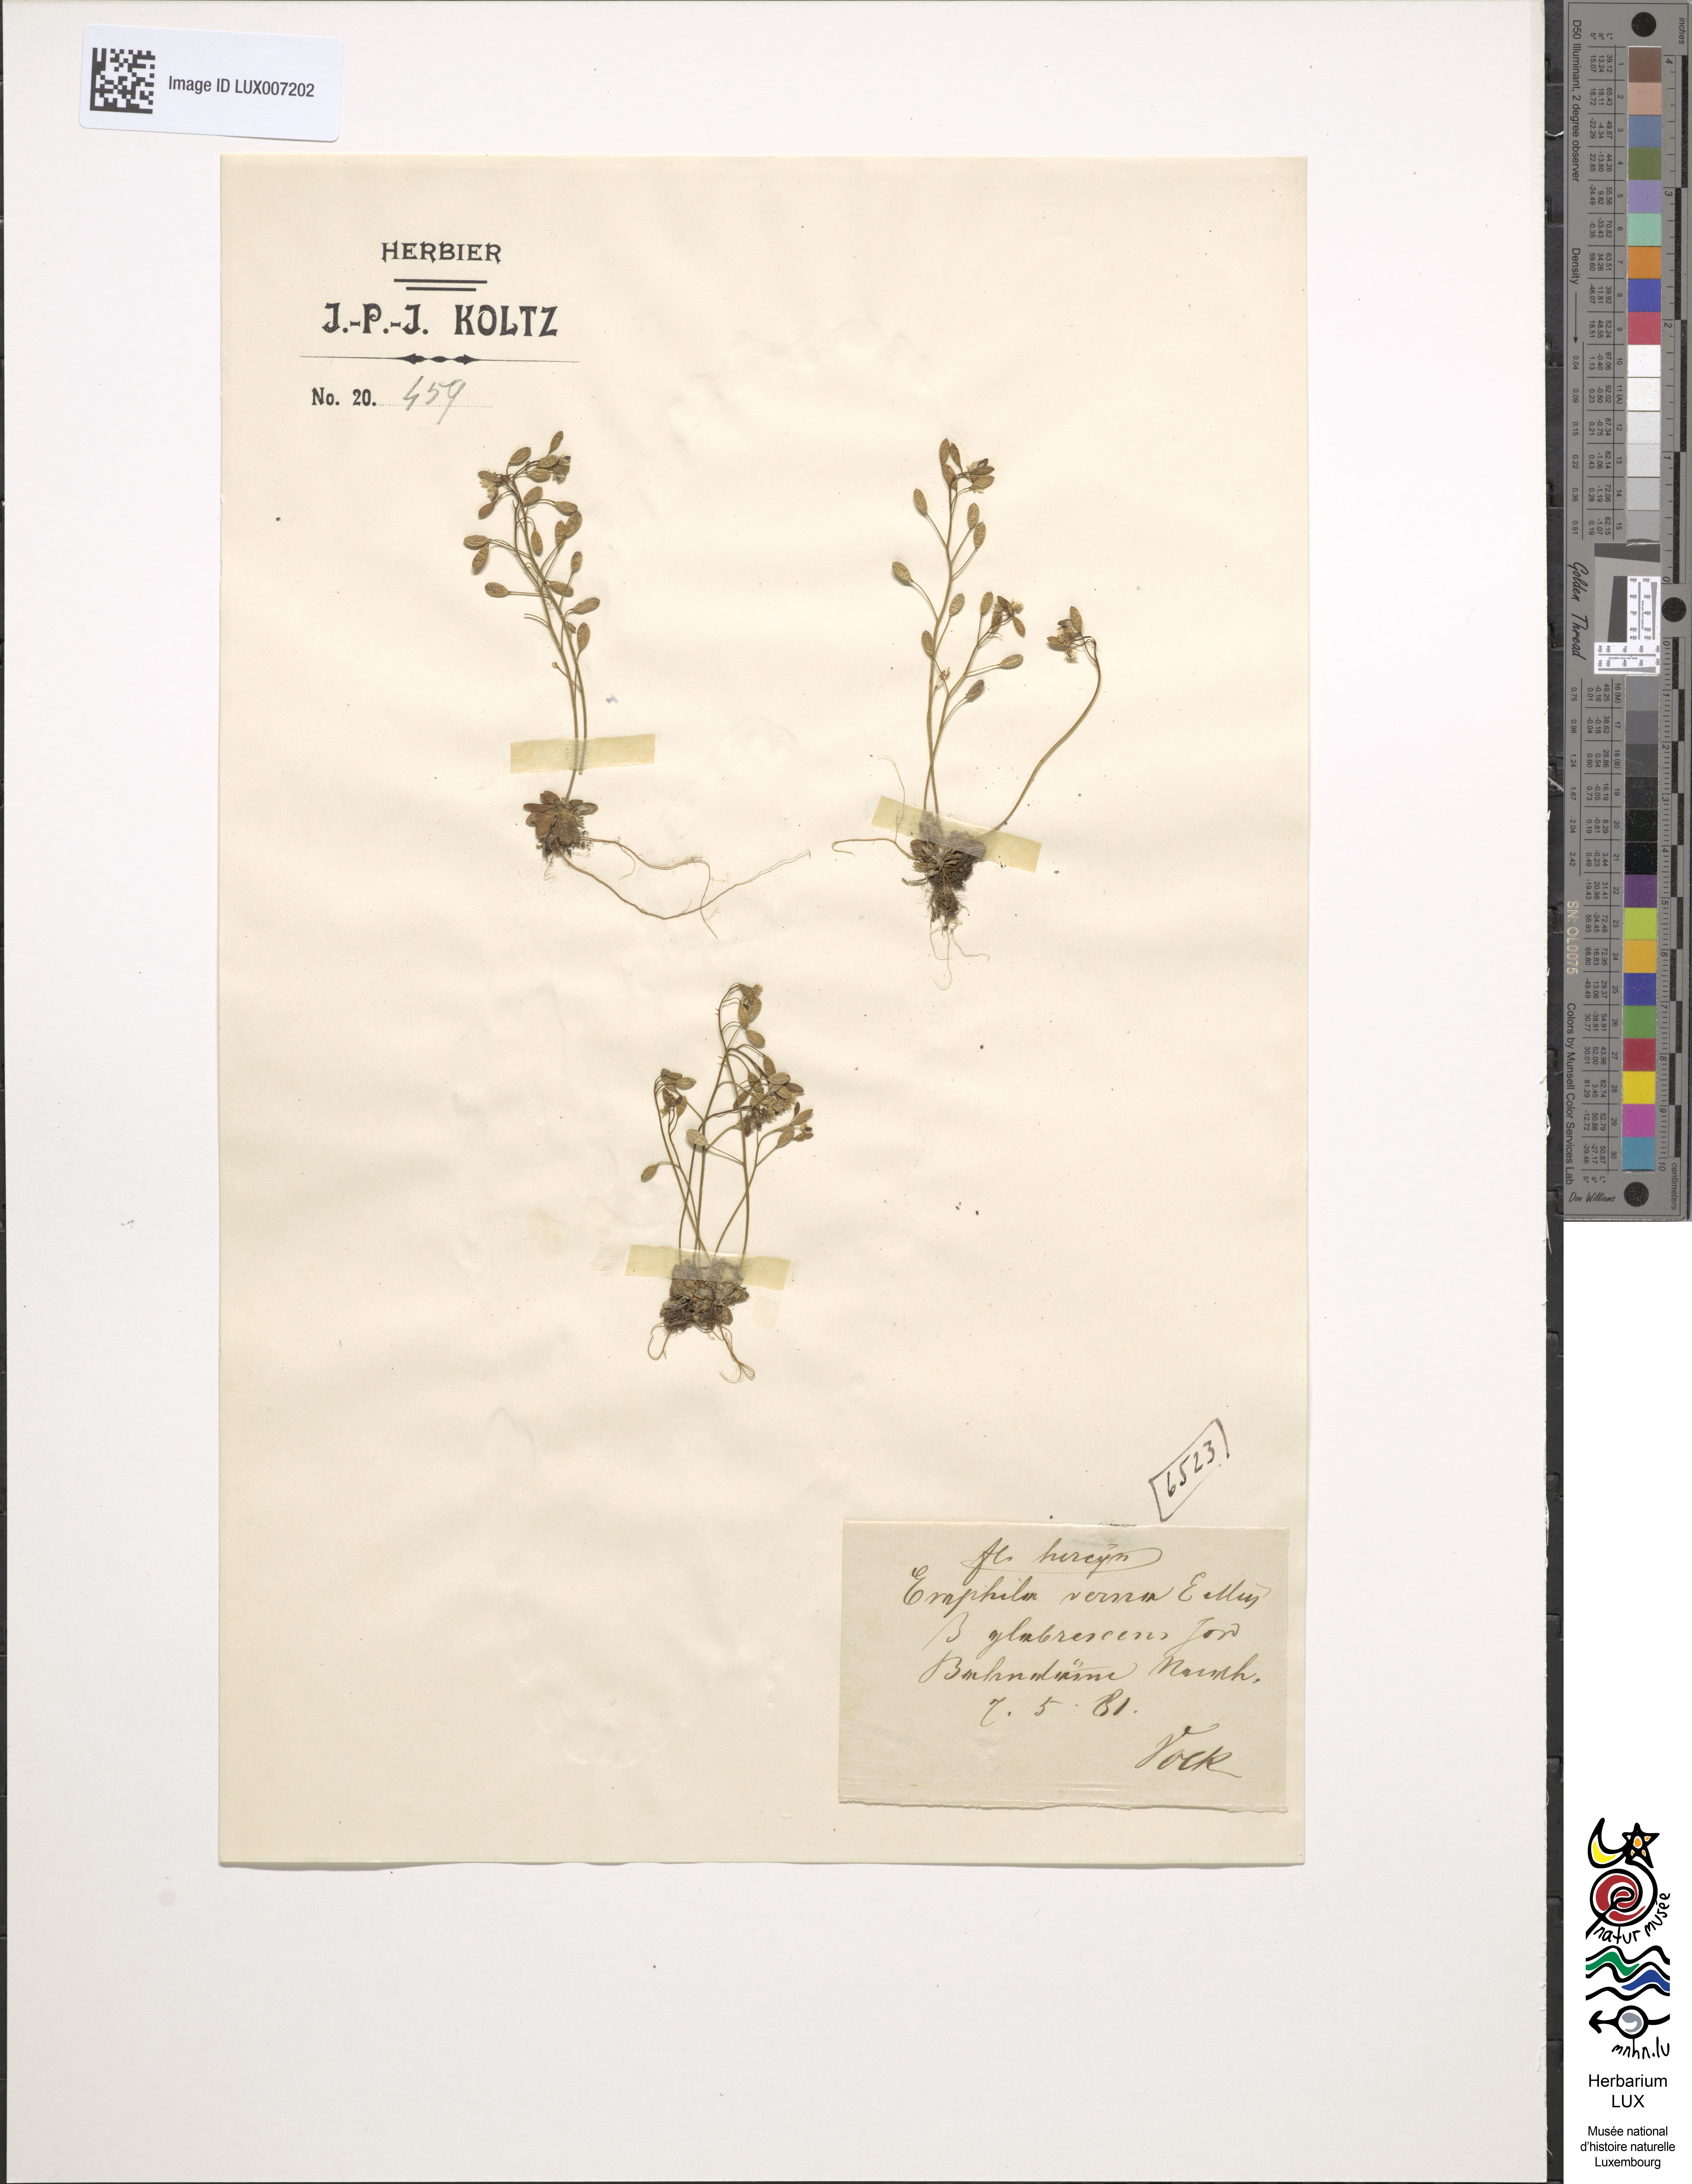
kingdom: Plantae
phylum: Tracheophyta
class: Magnoliopsida
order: Brassicales
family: Brassicaceae
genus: Draba
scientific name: Draba verna
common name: Spring draba
